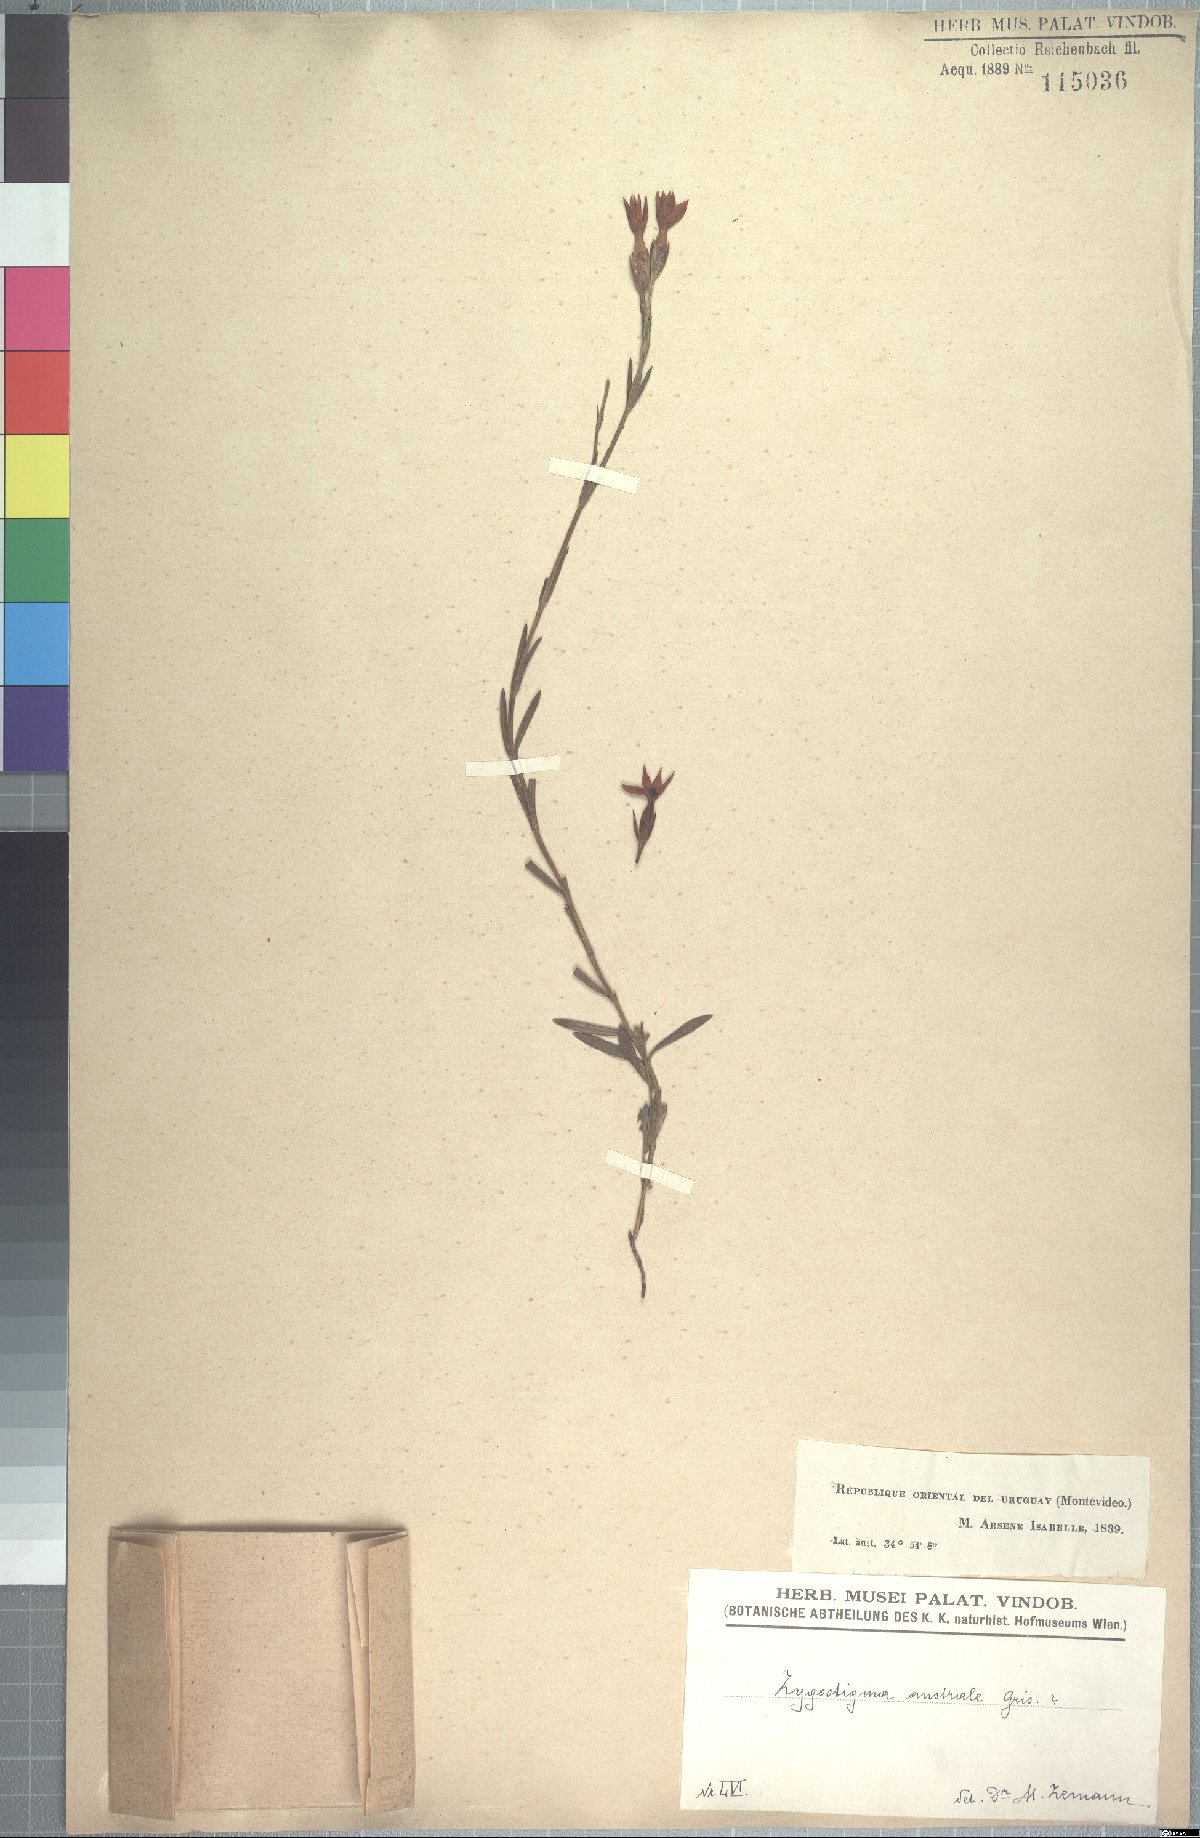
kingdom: Plantae
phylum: Tracheophyta
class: Magnoliopsida
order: Gentianales
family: Gentianaceae
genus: Zygostigma
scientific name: Zygostigma australe
